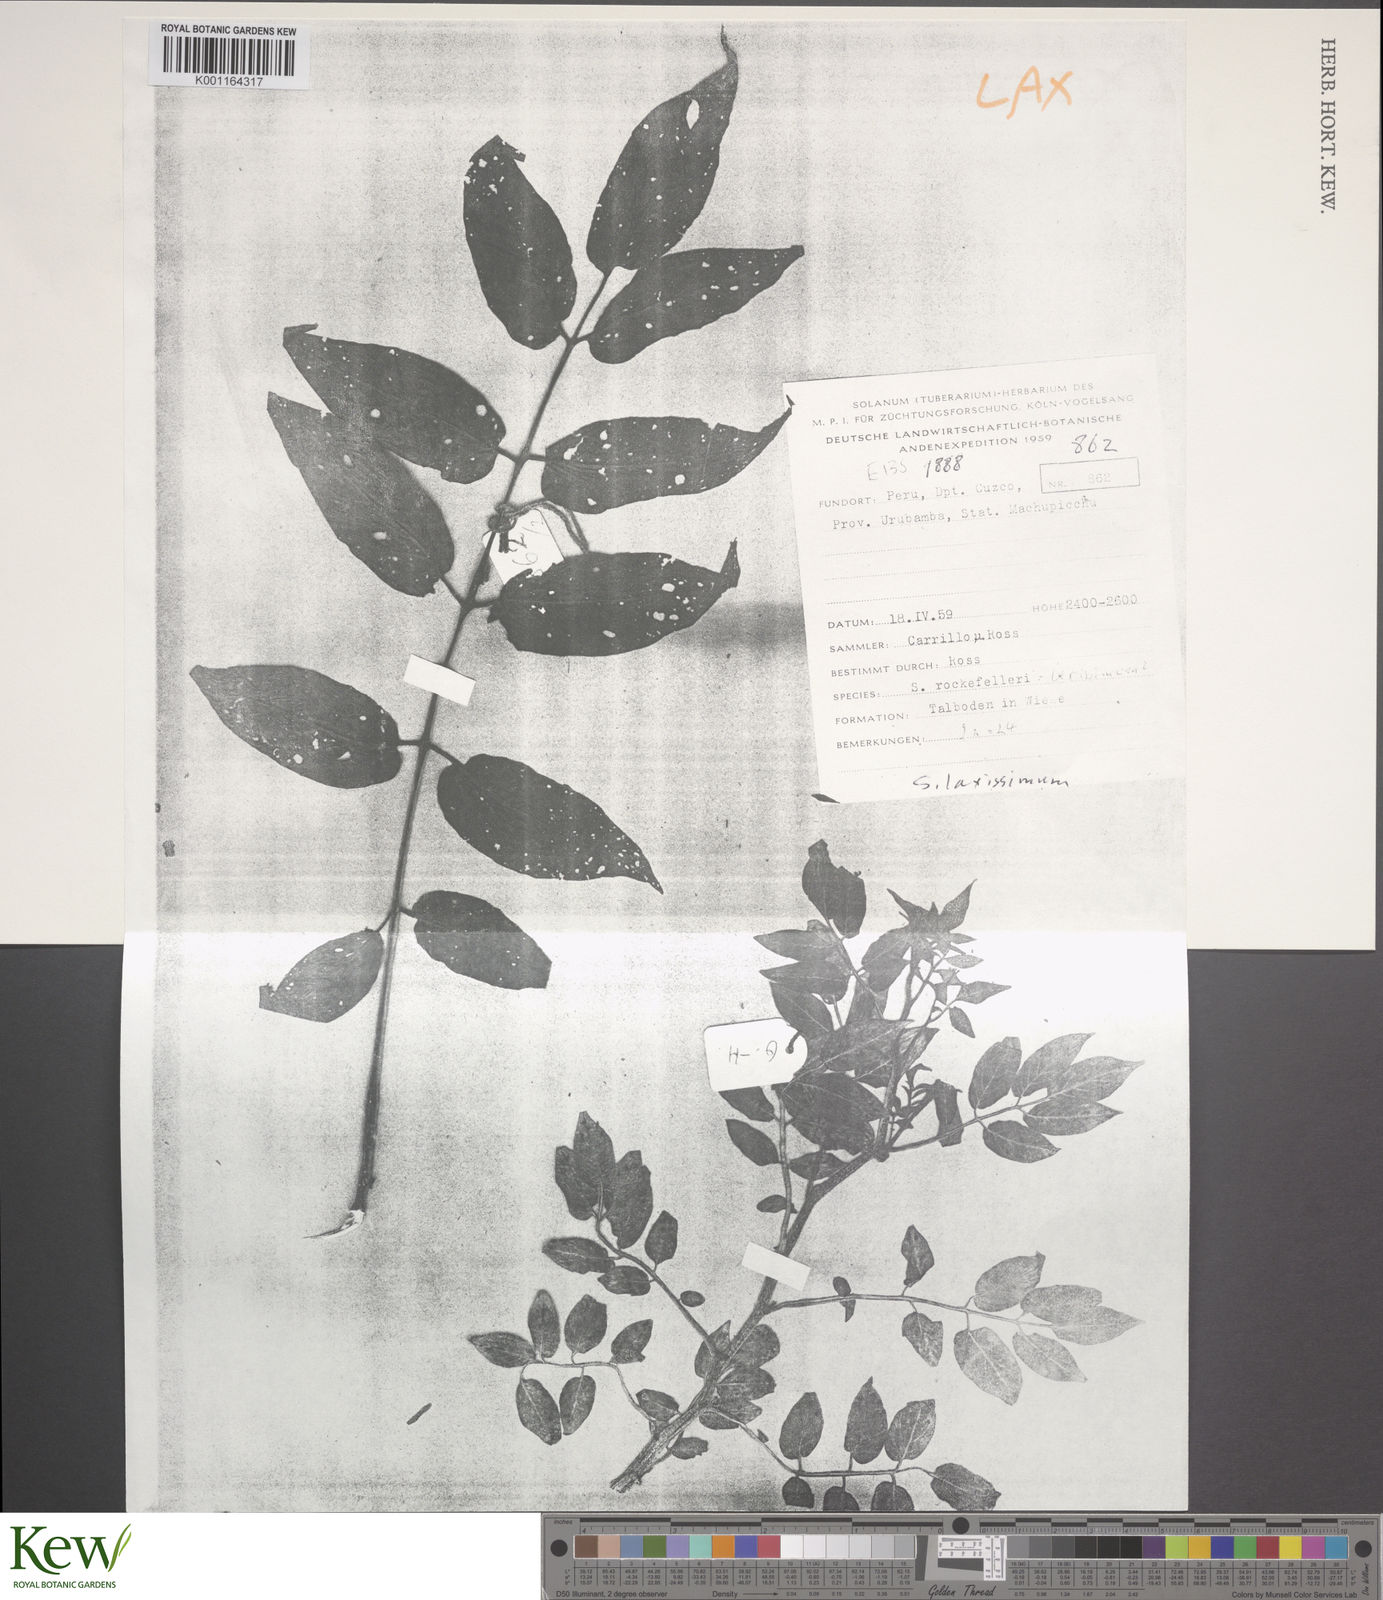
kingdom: Plantae
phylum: Tracheophyta
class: Magnoliopsida
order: Solanales
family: Solanaceae
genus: Solanum
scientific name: Solanum laxissimum
